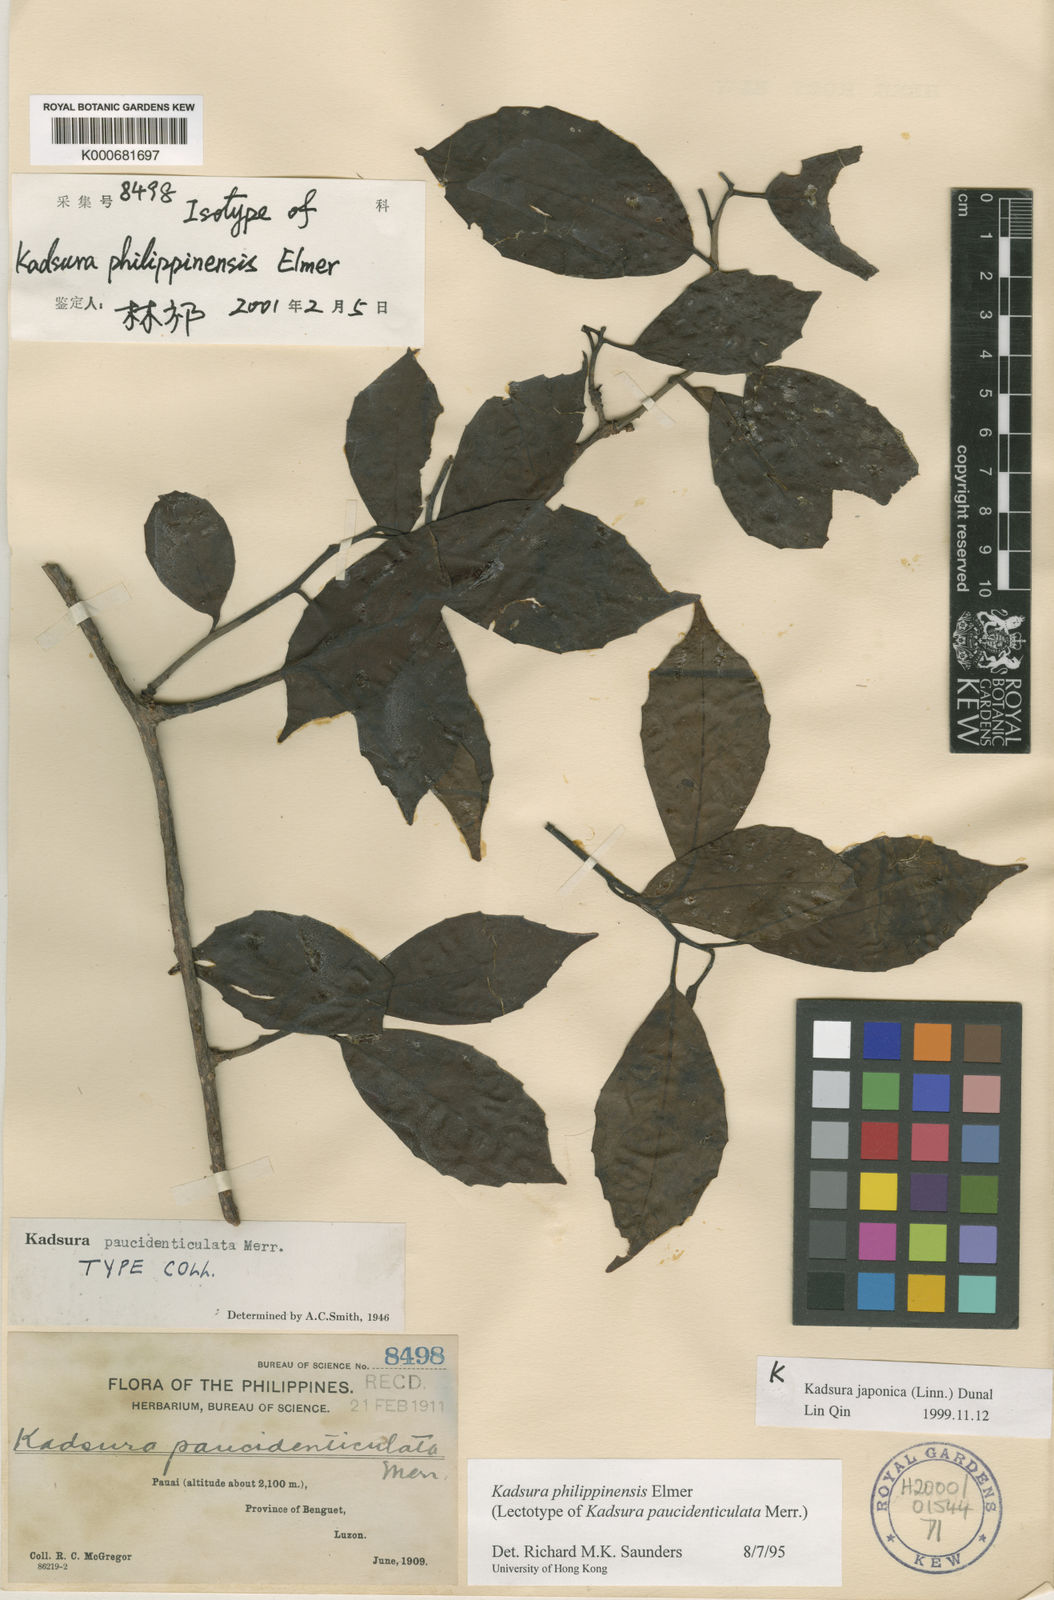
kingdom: Plantae
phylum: Tracheophyta
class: Magnoliopsida
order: Austrobaileyales
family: Schisandraceae
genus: Kadsura
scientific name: Kadsura philippinensis
